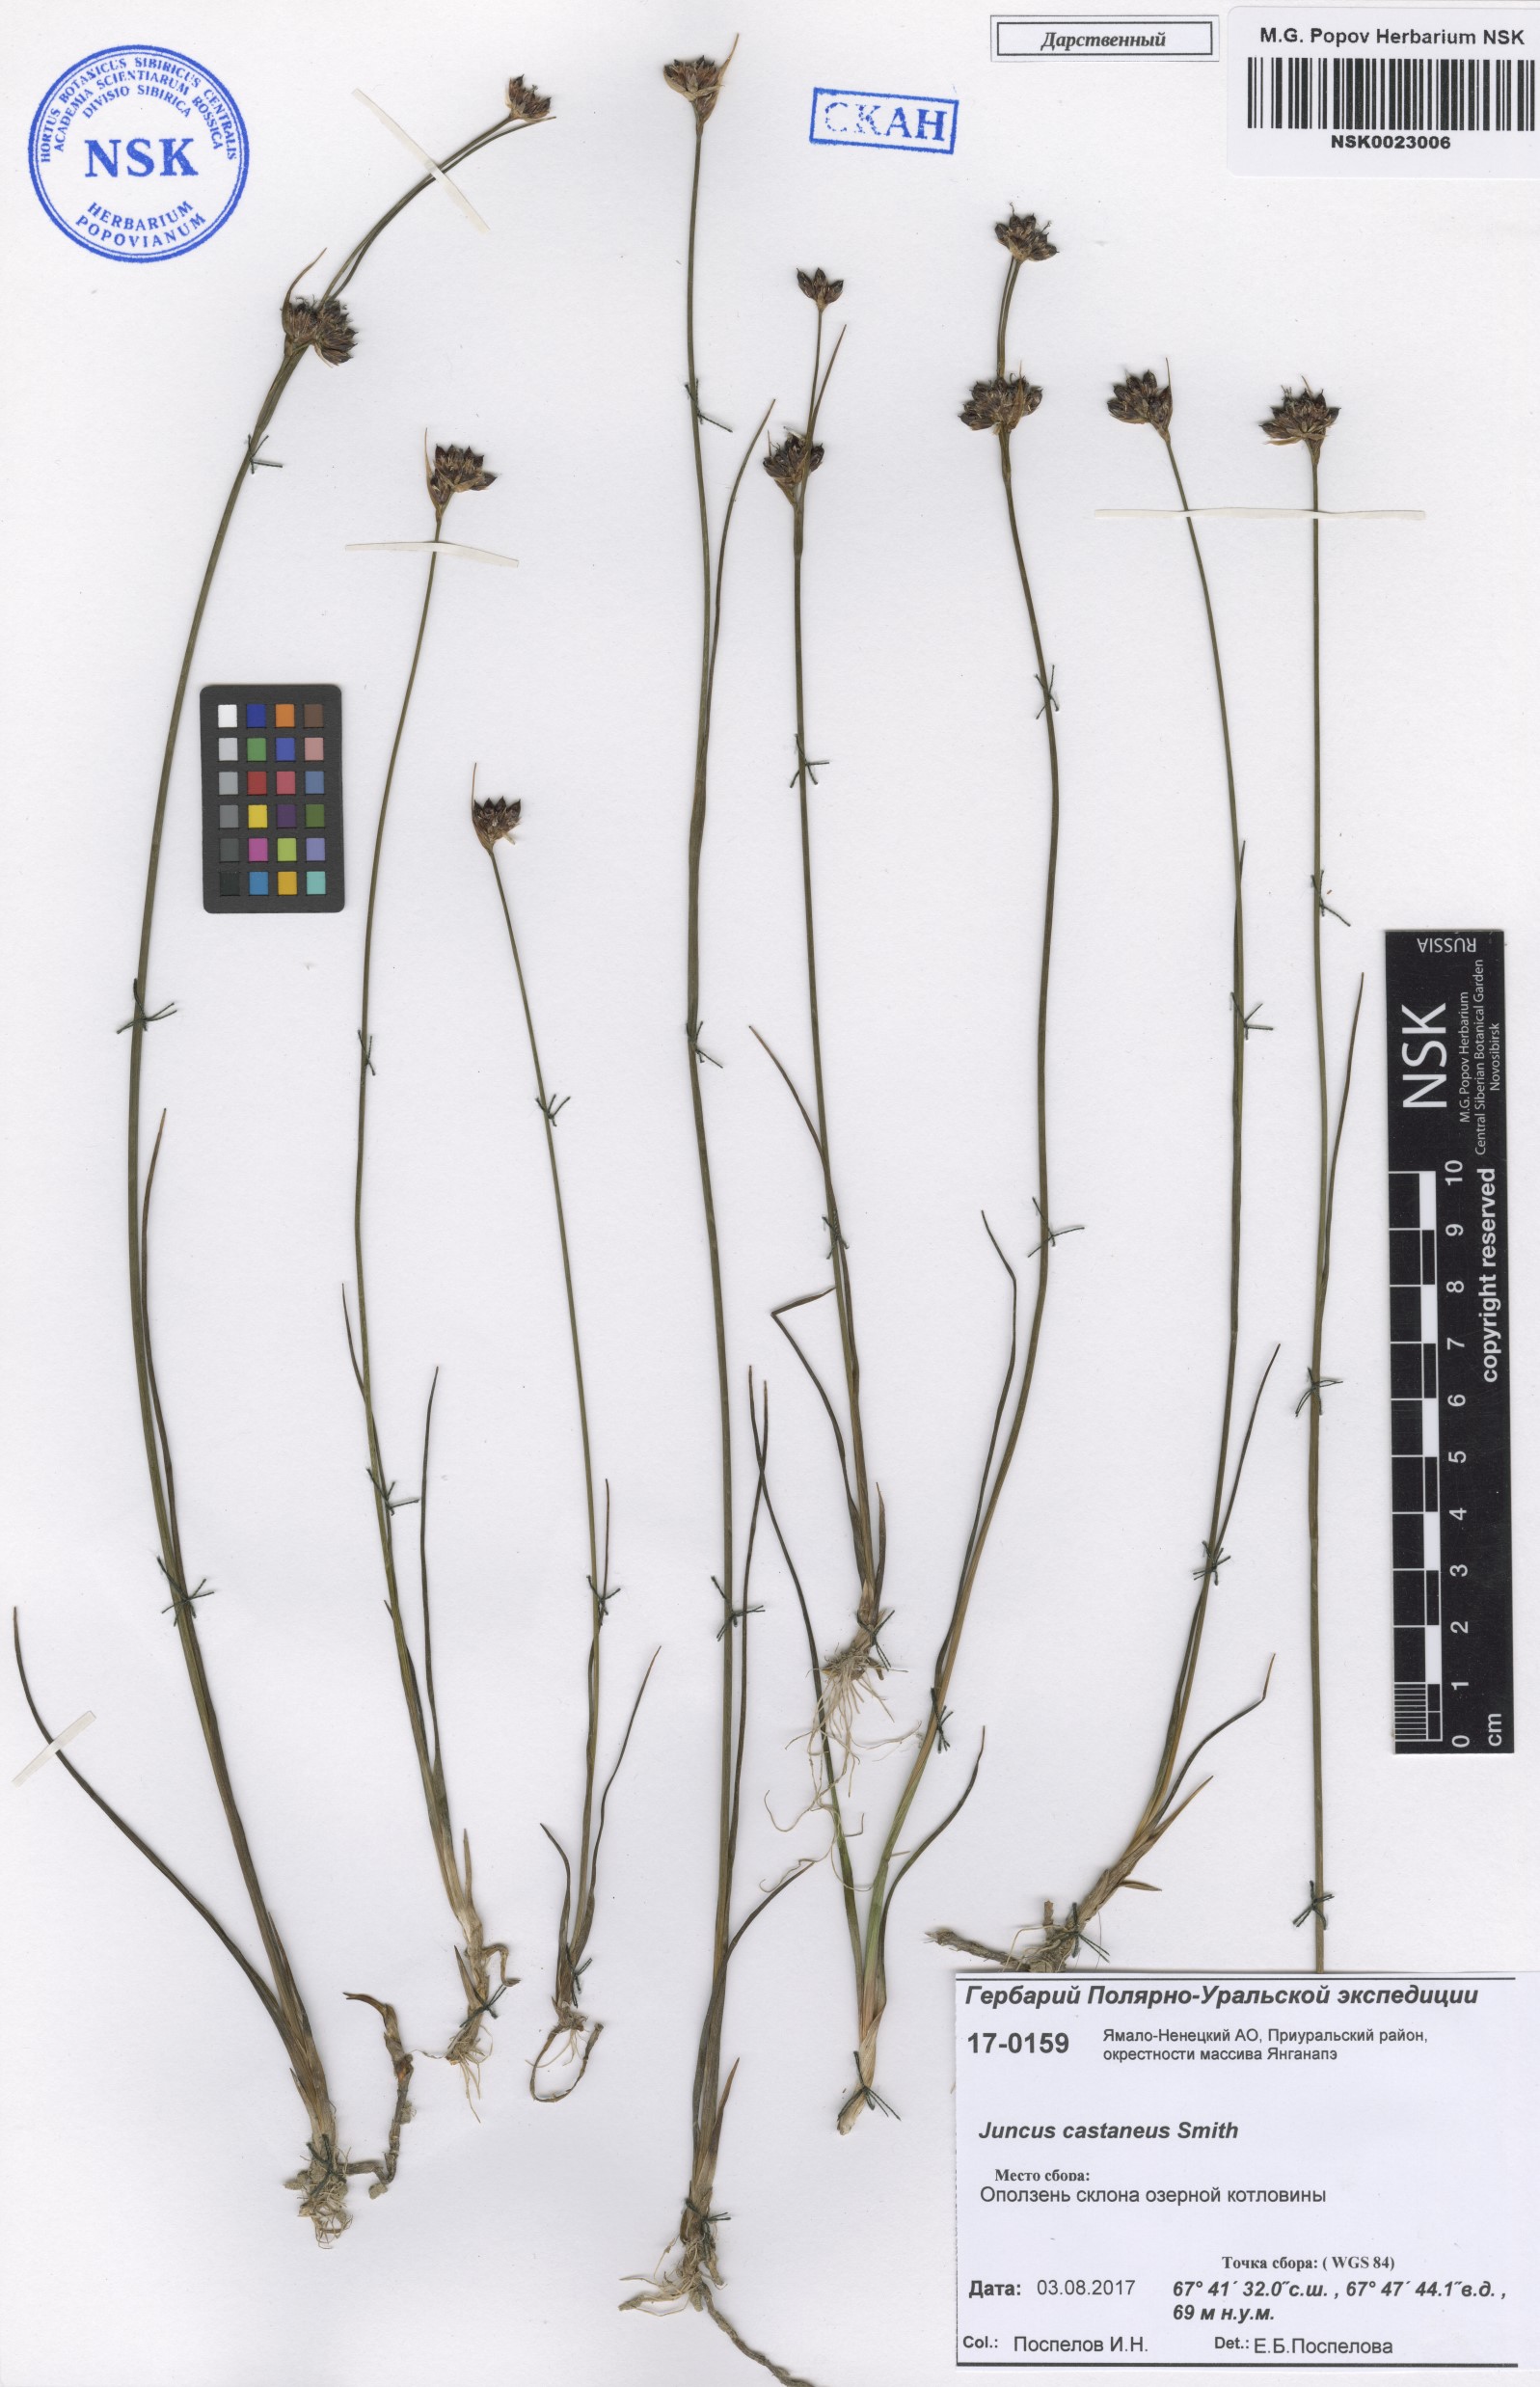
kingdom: Plantae
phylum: Tracheophyta
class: Liliopsida
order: Poales
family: Juncaceae
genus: Juncus
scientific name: Juncus castaneus
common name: Chestnut rush
